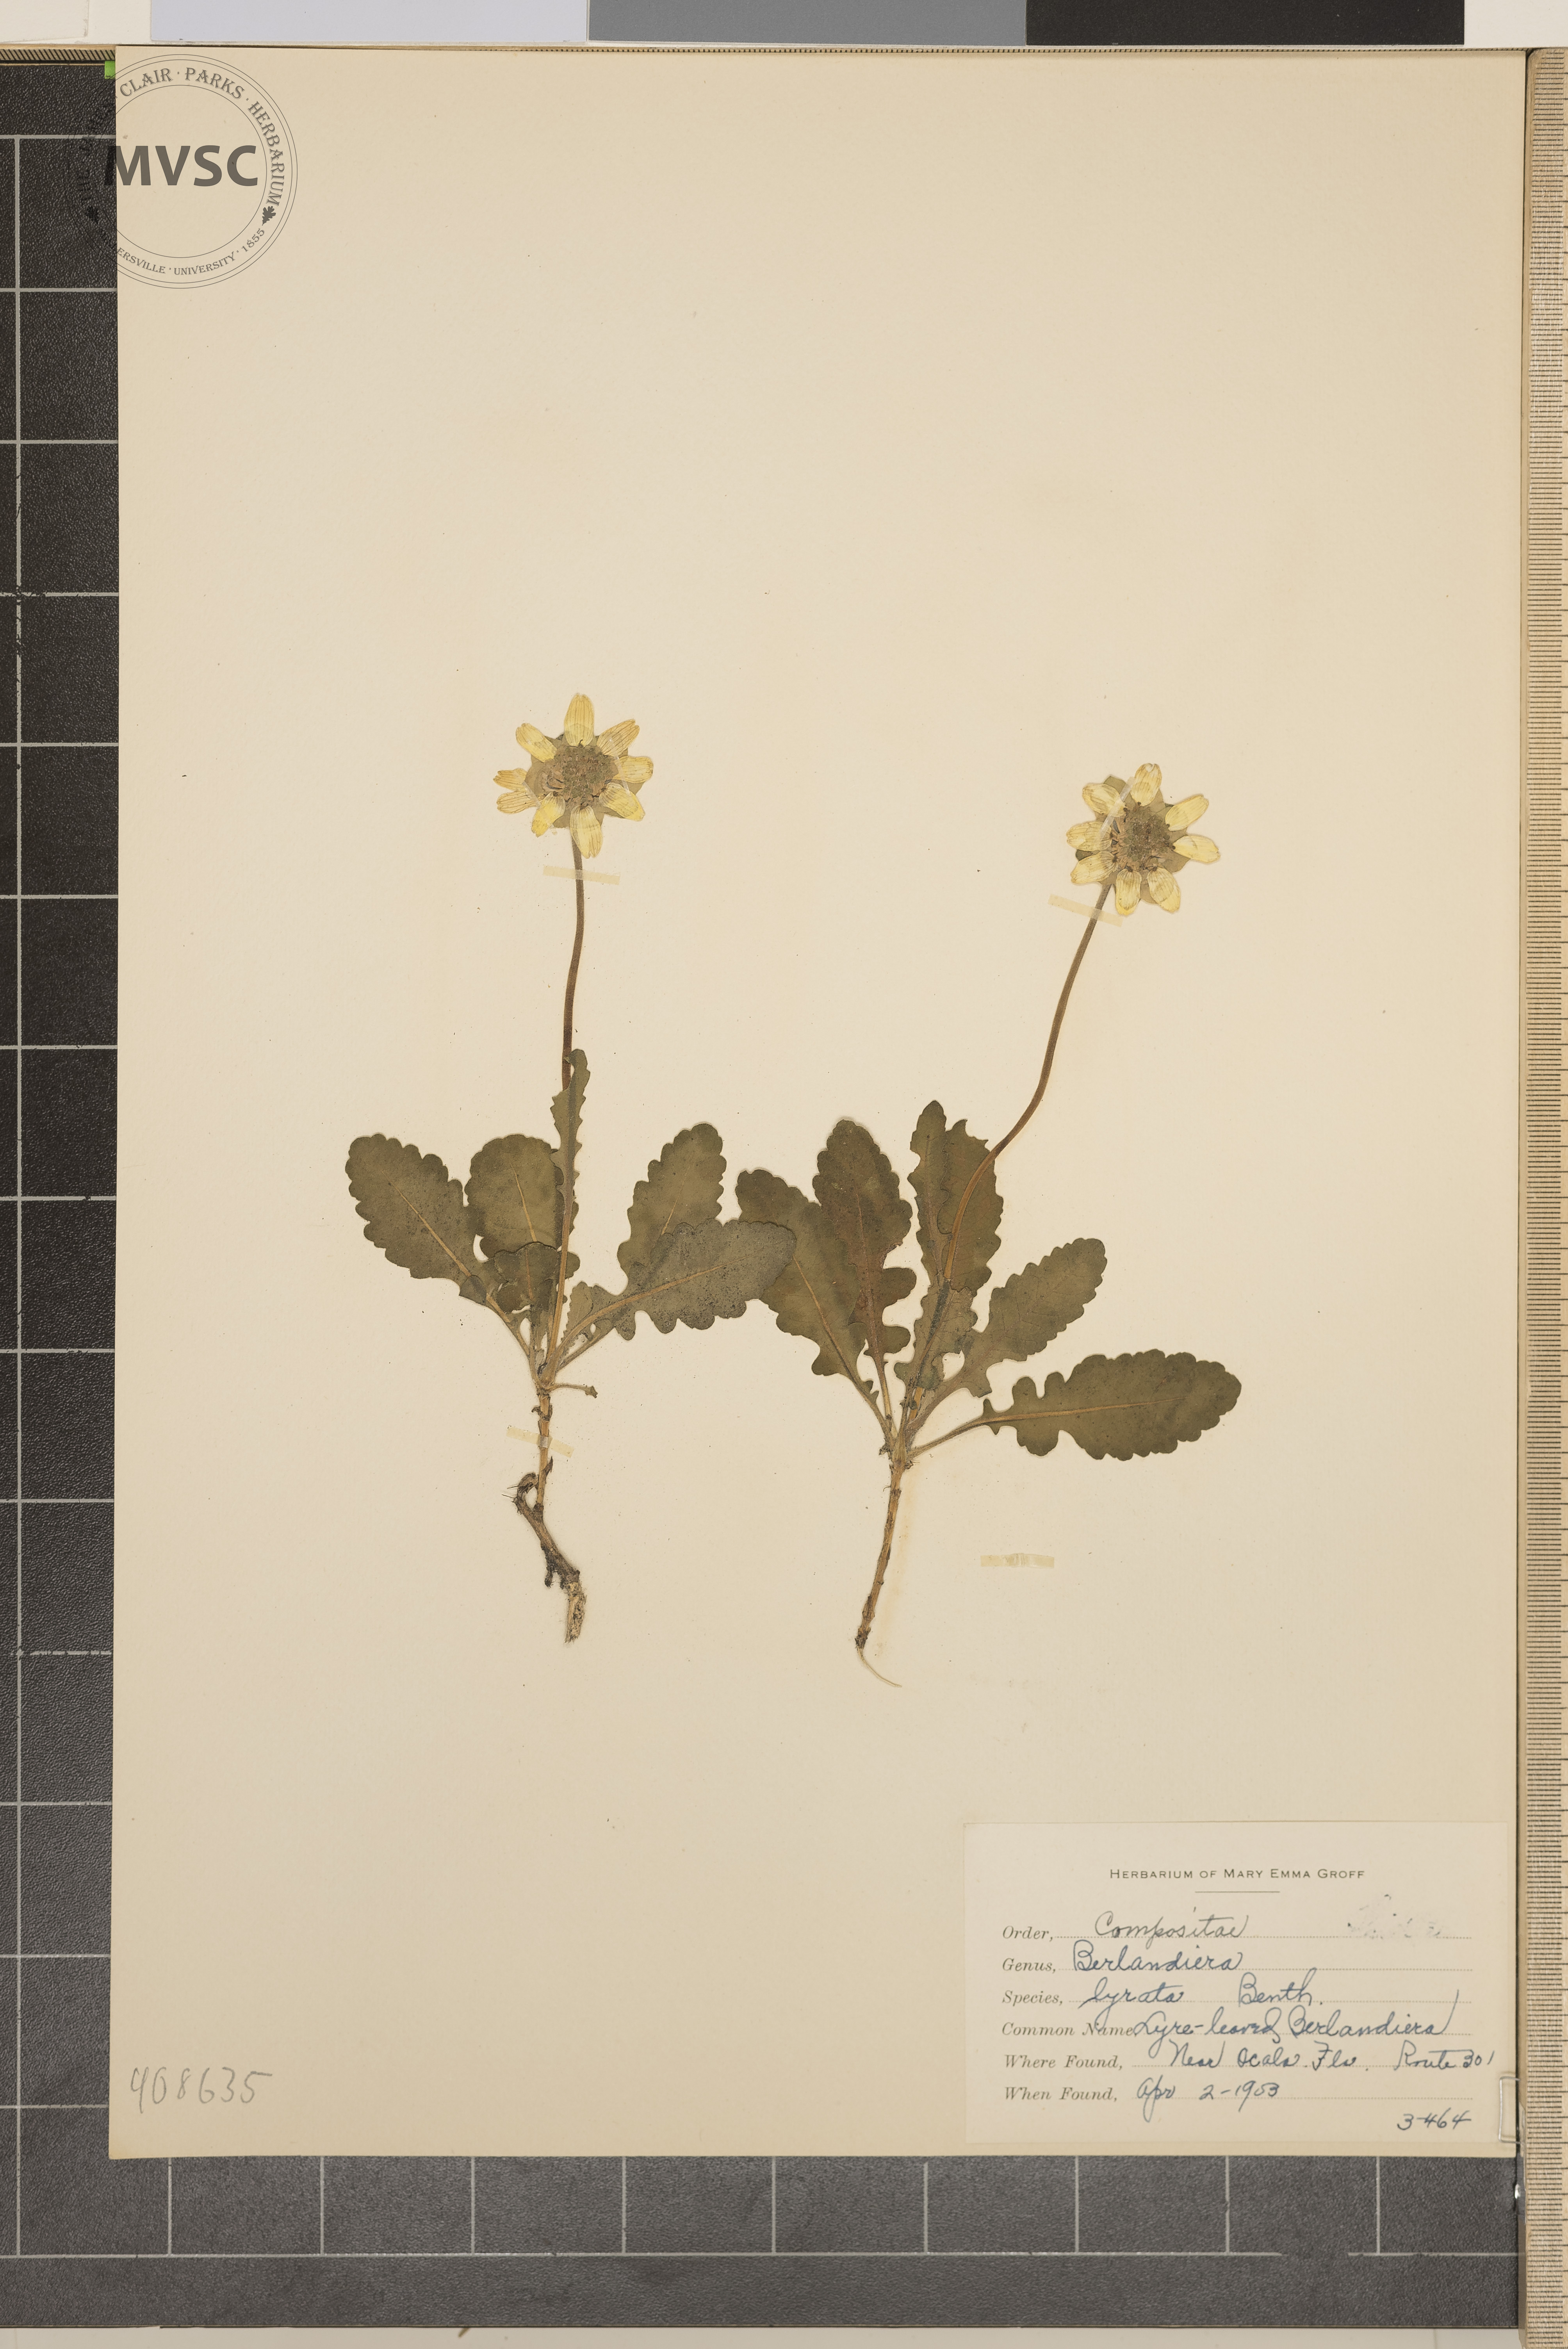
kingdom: Plantae
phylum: Tracheophyta
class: Magnoliopsida
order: Asterales
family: Asteraceae
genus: Berlandiera
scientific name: Berlandiera lyrata
